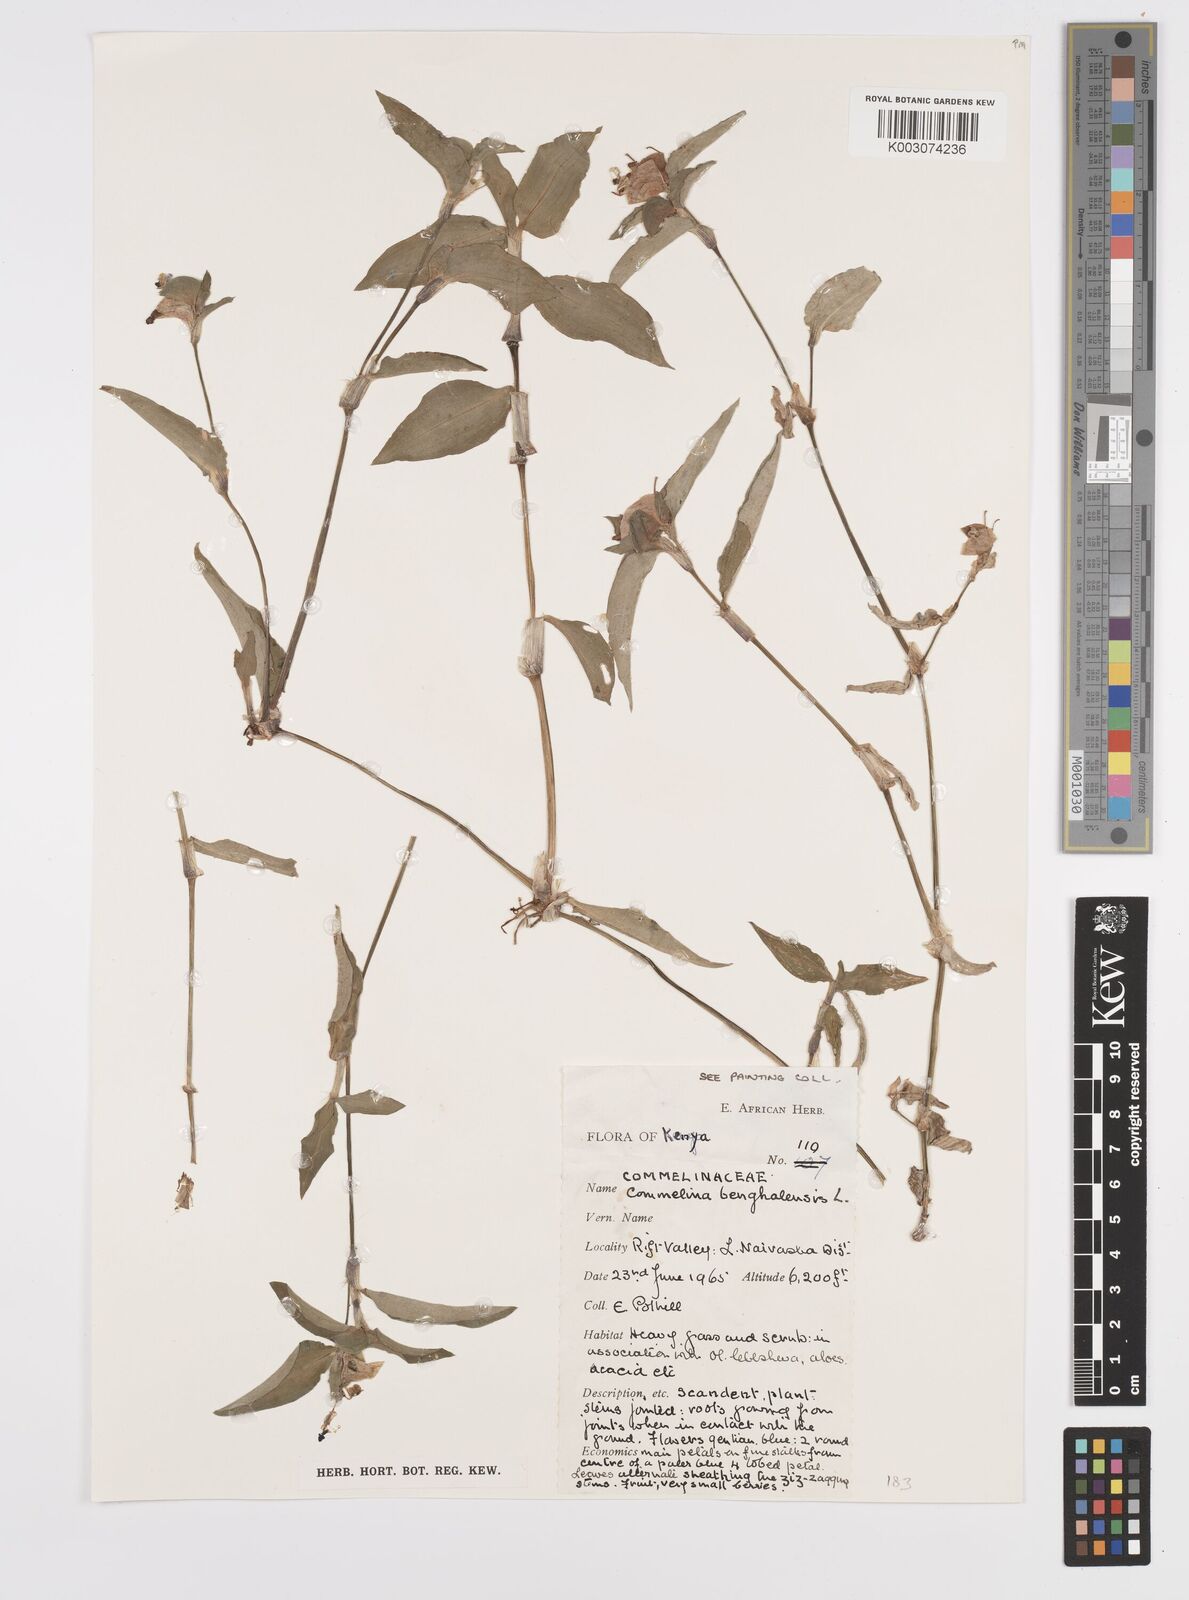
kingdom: Plantae
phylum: Tracheophyta
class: Liliopsida
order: Commelinales
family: Commelinaceae
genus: Commelina
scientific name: Commelina benghalensis
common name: Jio
